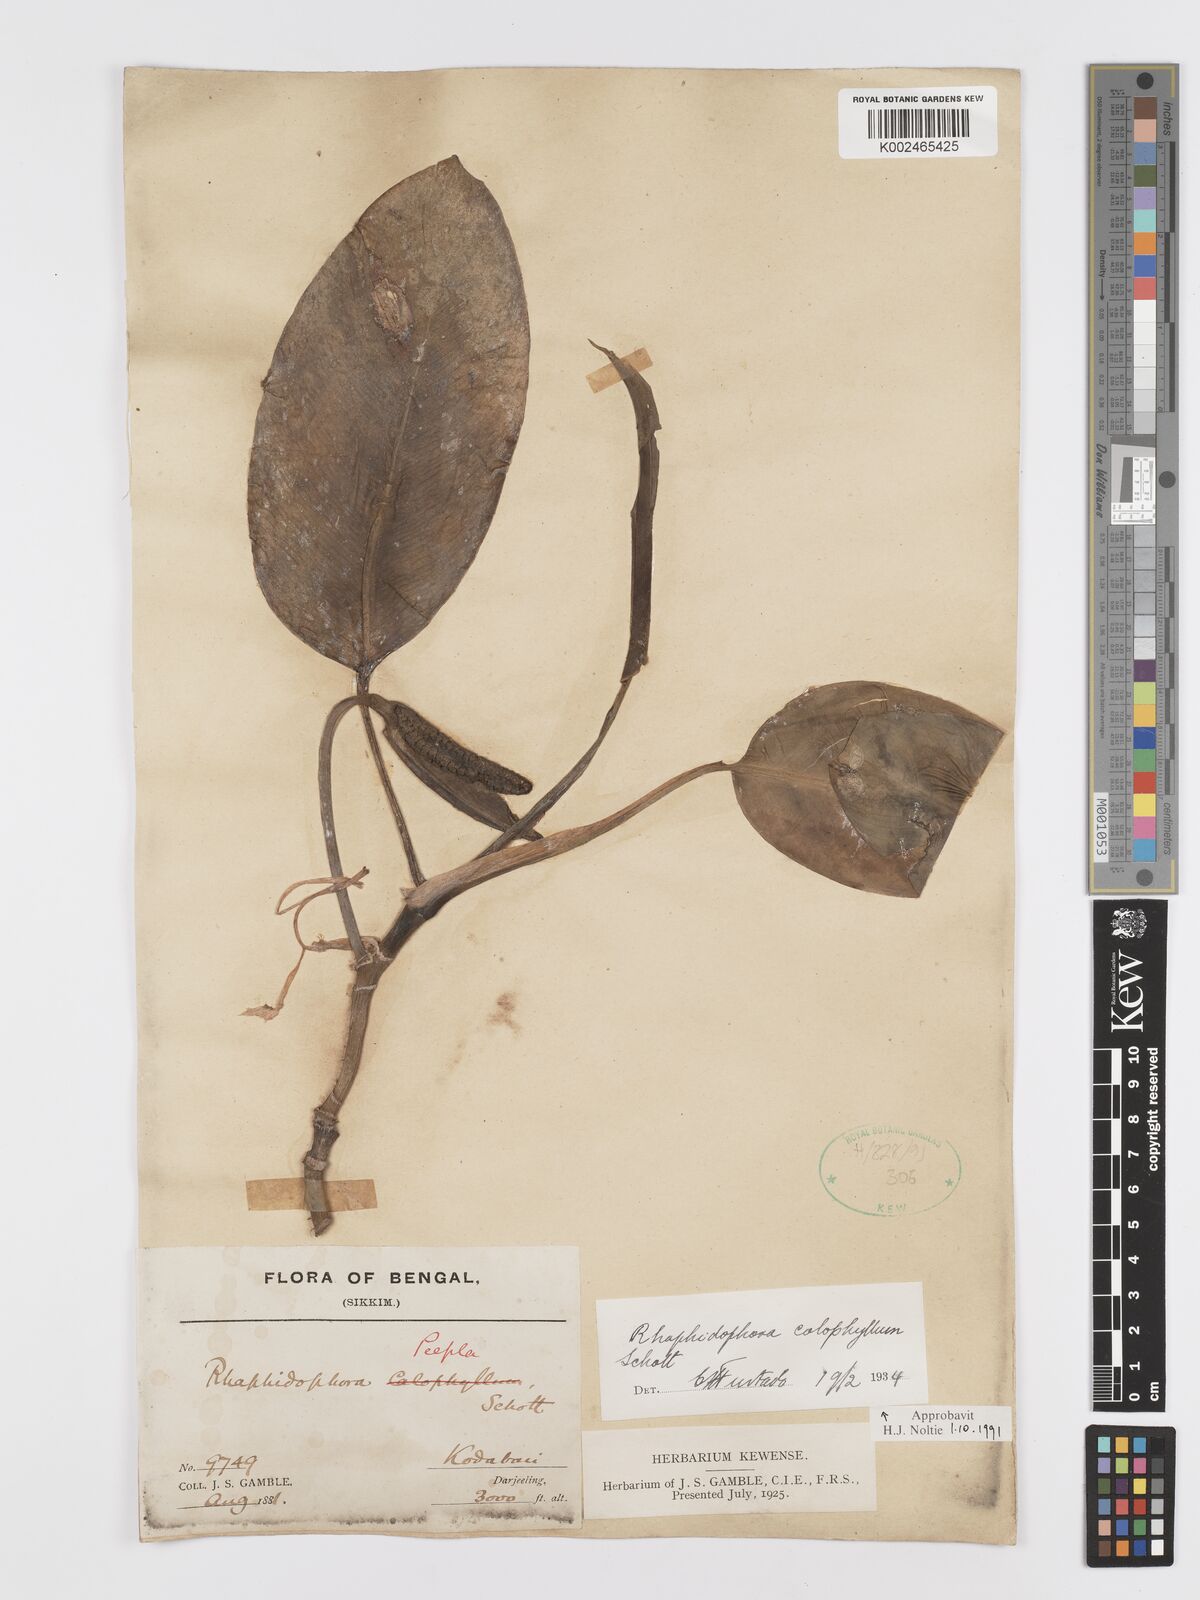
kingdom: Plantae
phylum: Tracheophyta
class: Liliopsida
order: Alismatales
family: Araceae
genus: Rhaphidophora
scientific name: Rhaphidophora calophylla
